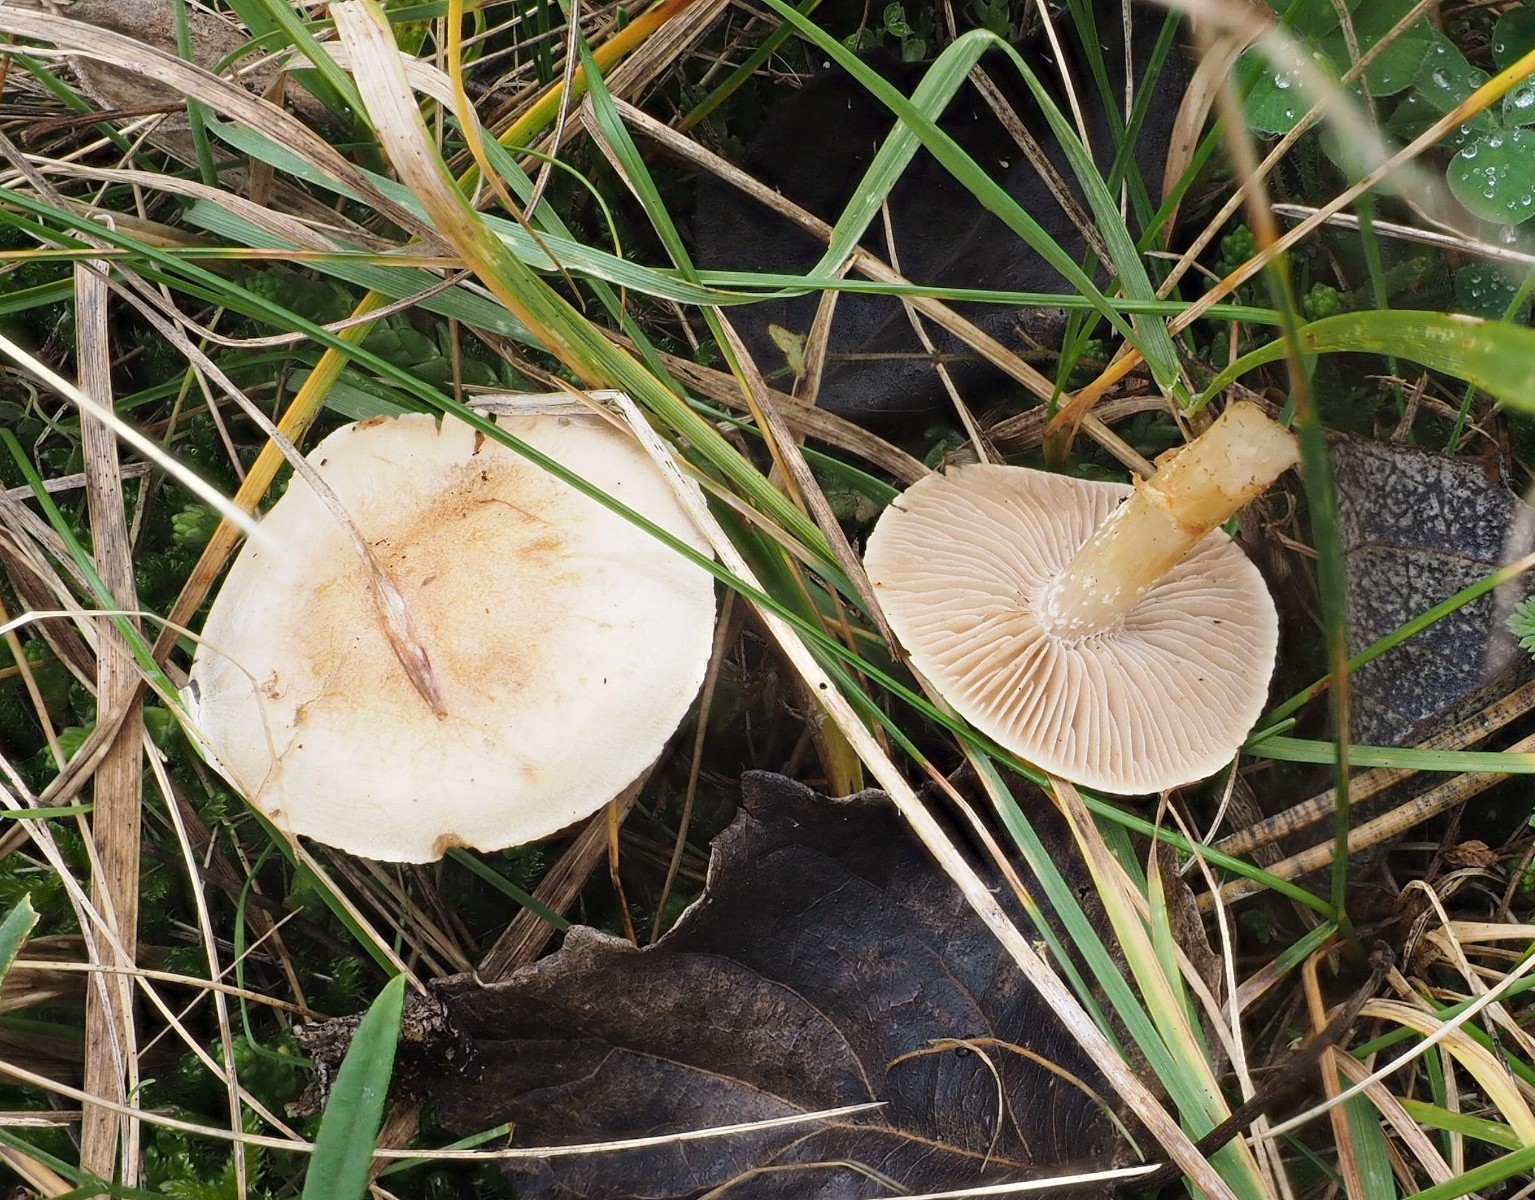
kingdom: Fungi
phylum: Basidiomycota
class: Agaricomycetes
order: Agaricales
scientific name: Agaricales
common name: champignonordenen
